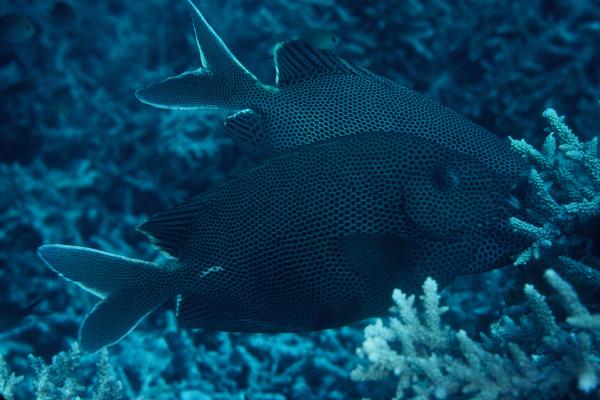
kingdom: Animalia
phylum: Chordata
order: Perciformes
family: Siganidae
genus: Siganus
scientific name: Siganus stellatus
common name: Brown-spotted spinefoot
